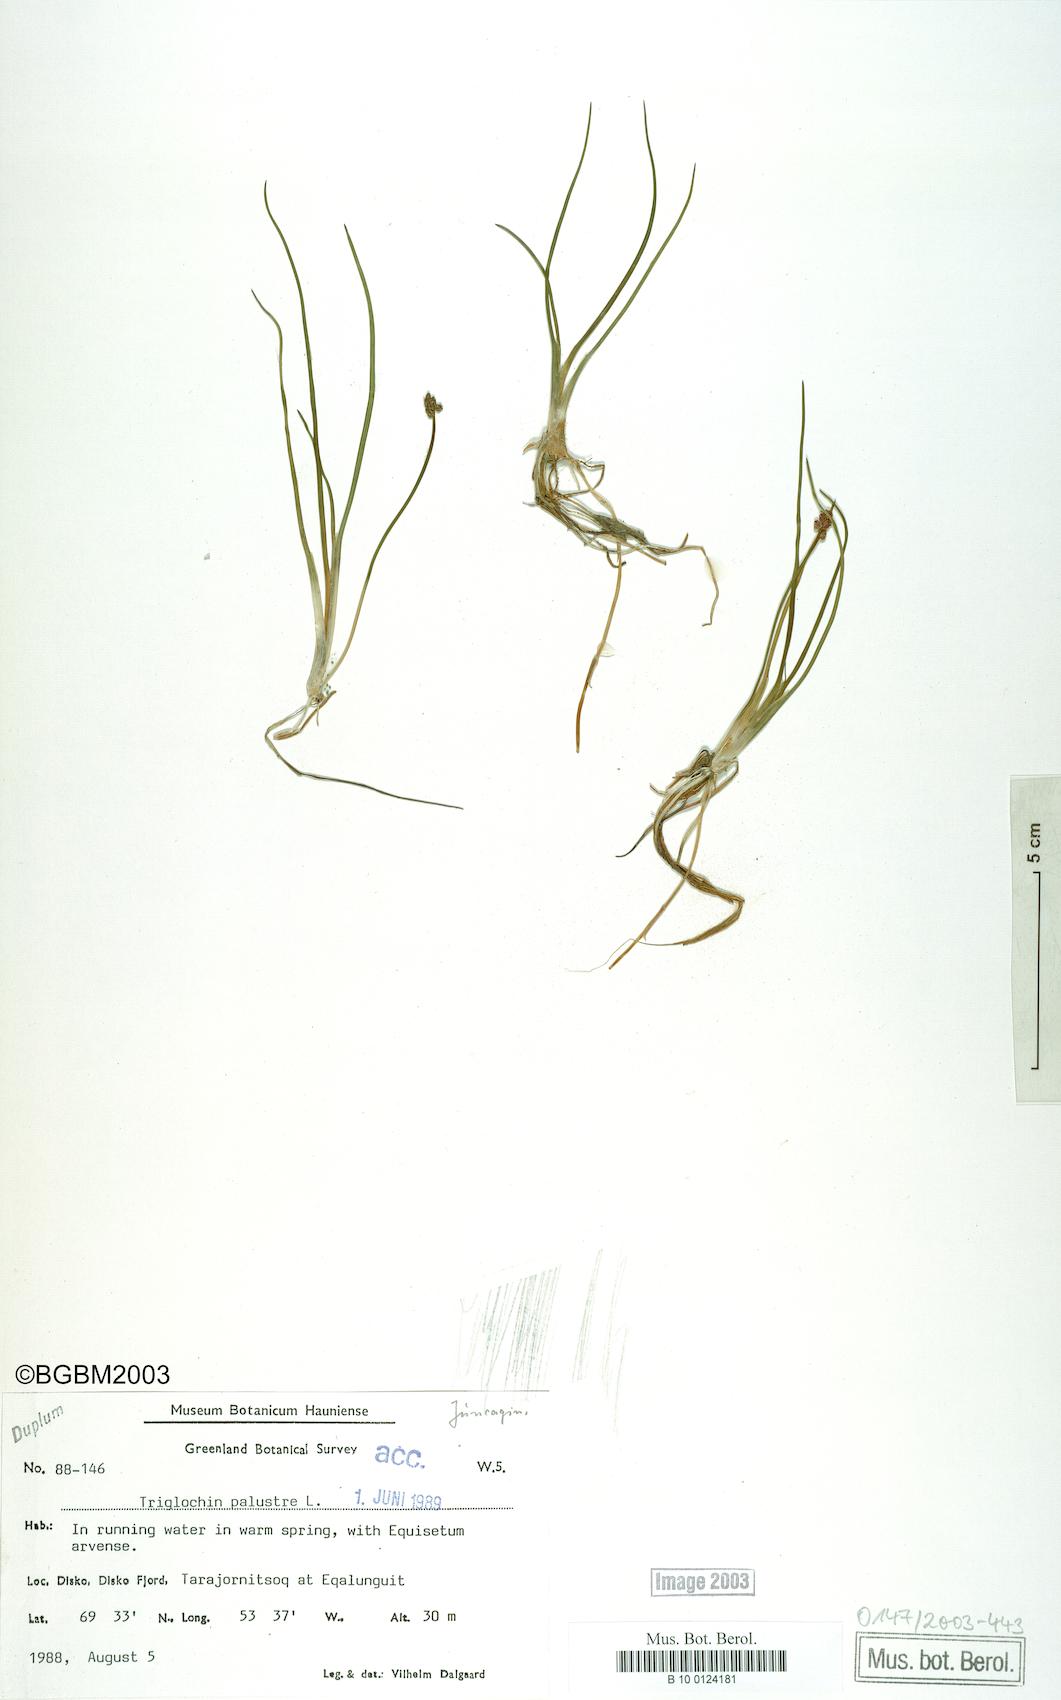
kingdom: Plantae
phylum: Tracheophyta
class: Liliopsida
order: Alismatales
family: Juncaginaceae
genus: Triglochin
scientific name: Triglochin palustris
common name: Marsh arrowgrass
